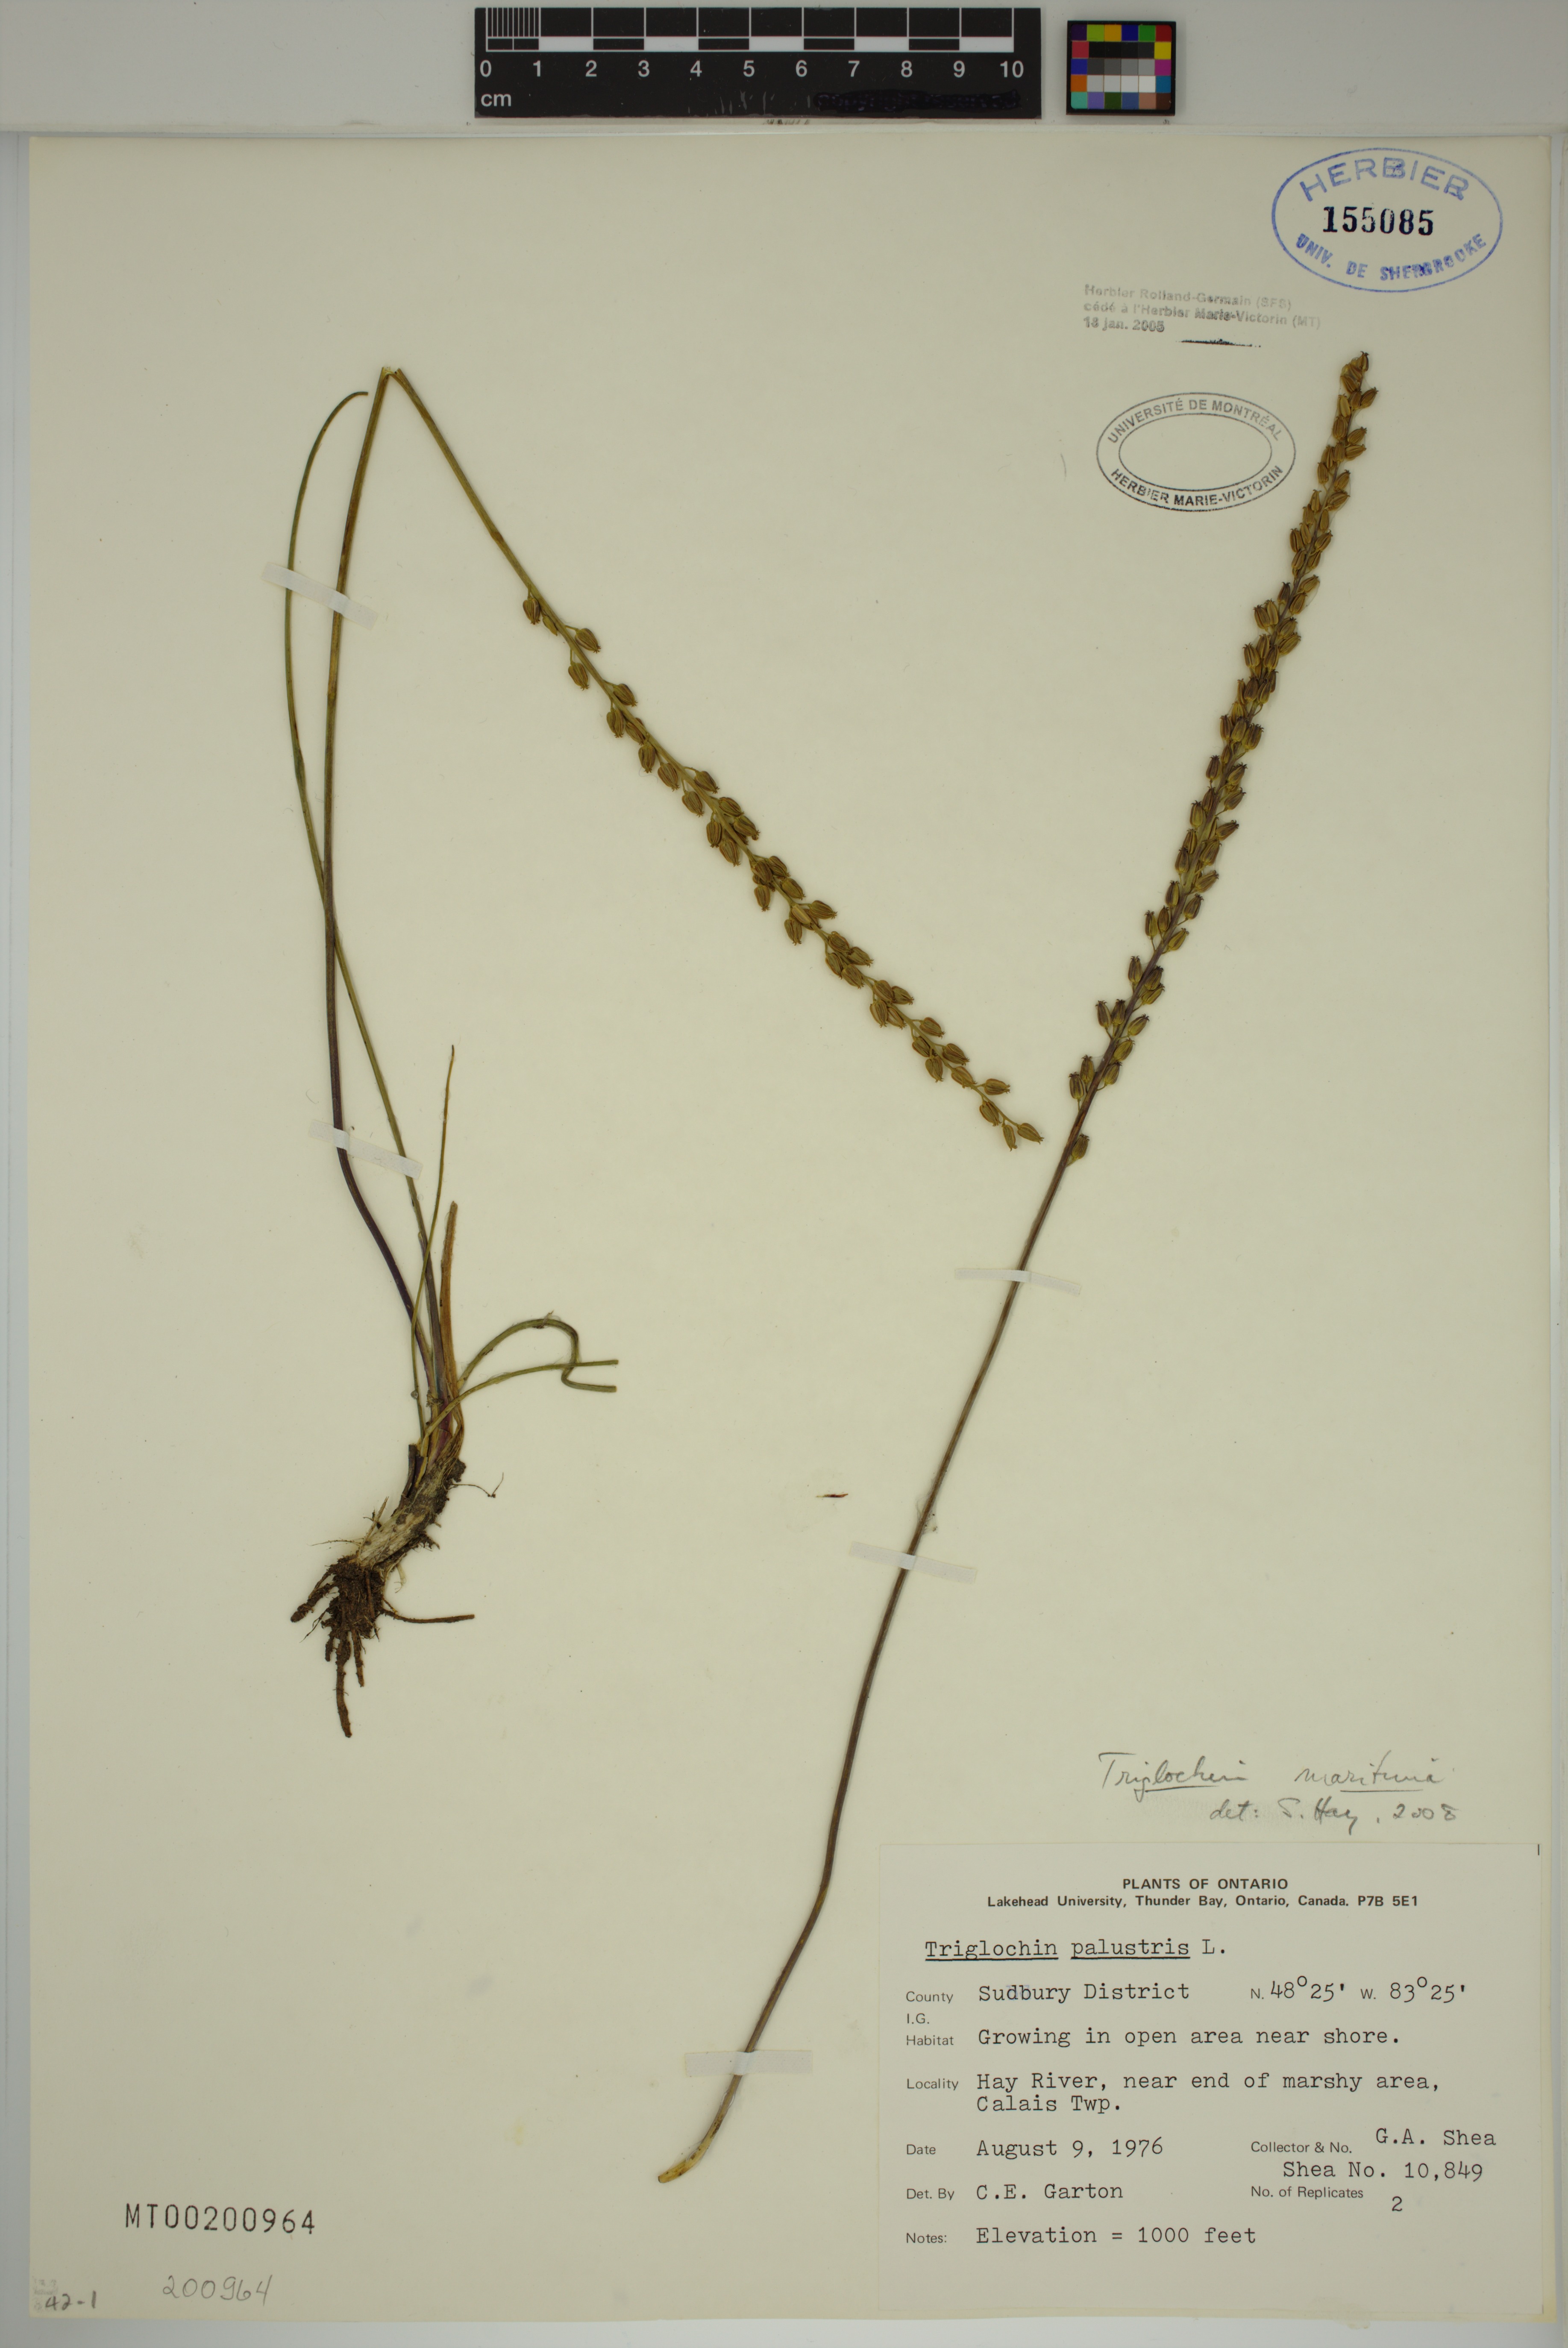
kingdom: Plantae
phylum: Tracheophyta
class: Liliopsida
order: Alismatales
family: Juncaginaceae
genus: Triglochin
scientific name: Triglochin maritima
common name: Sea arrowgrass
